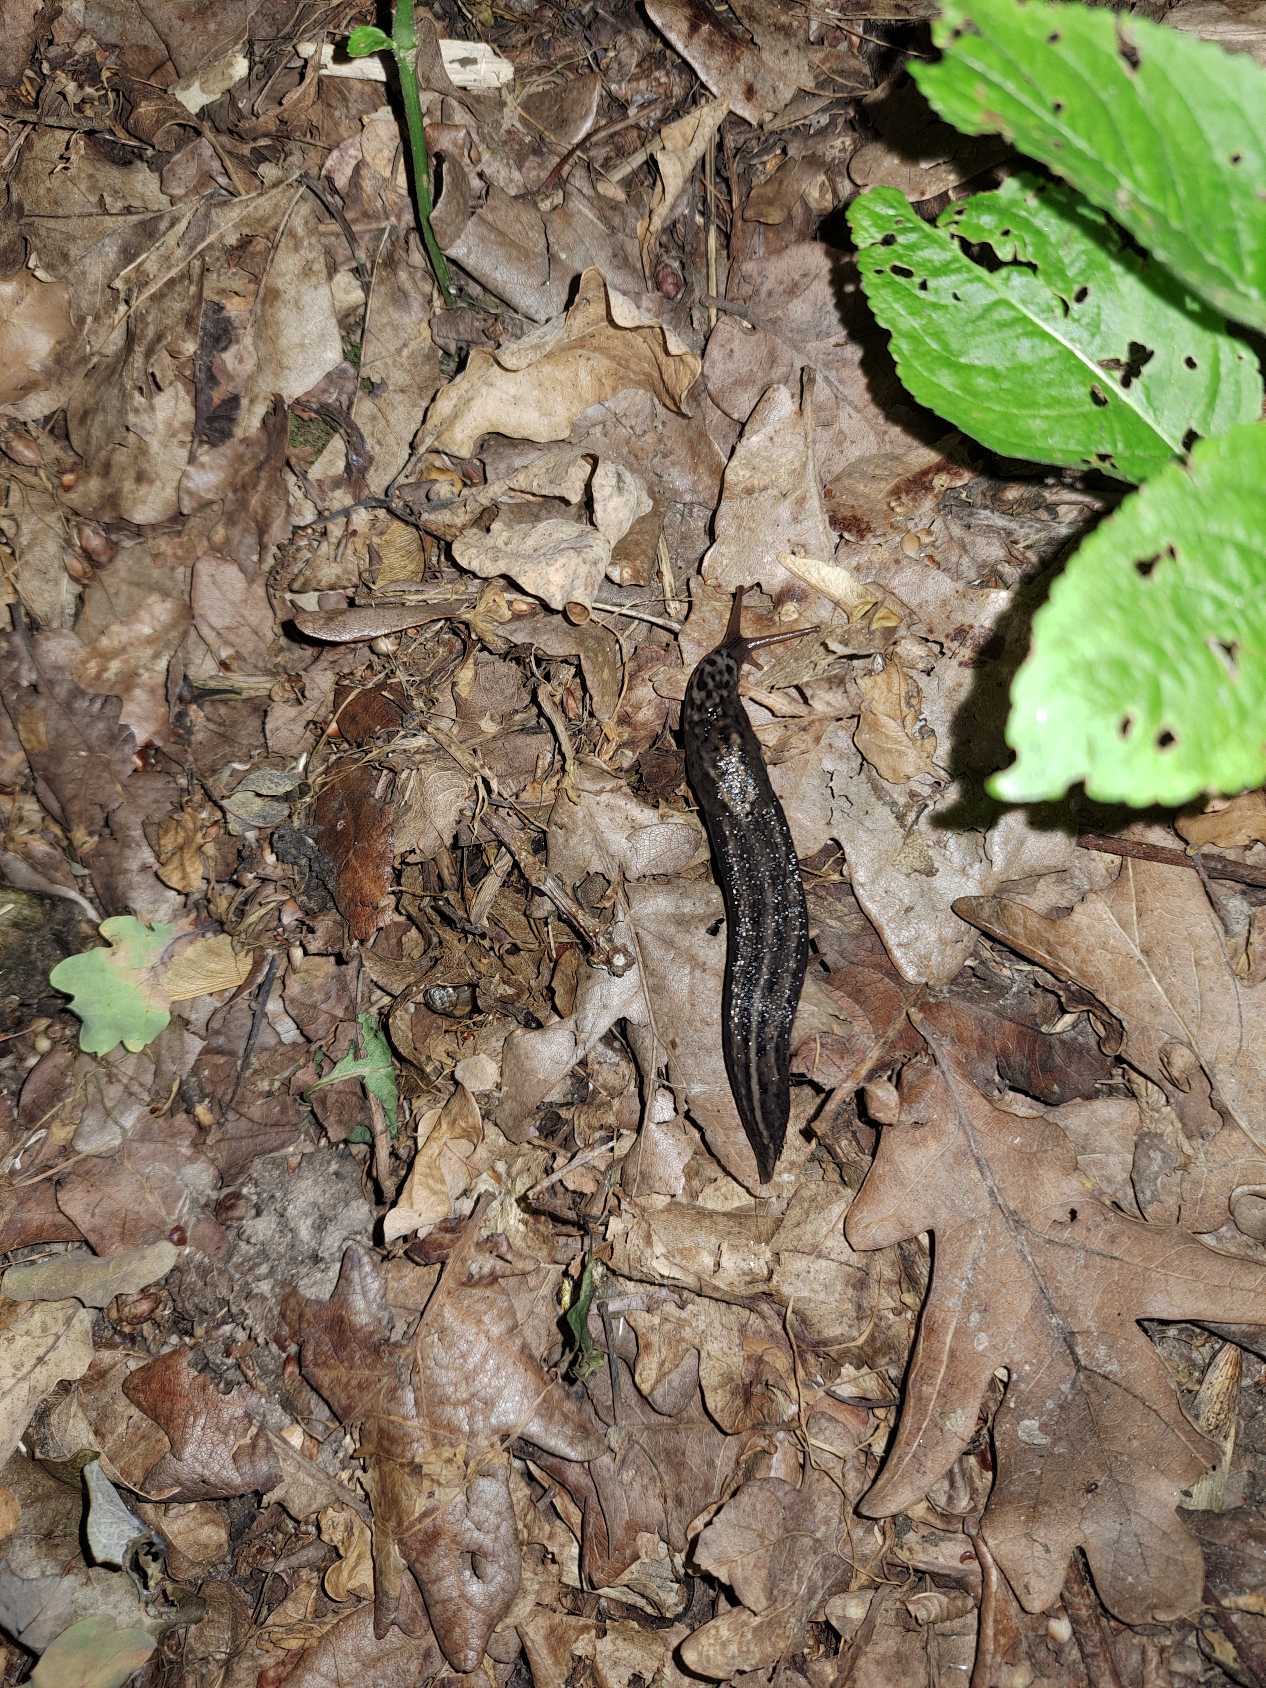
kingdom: Animalia
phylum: Mollusca
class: Gastropoda
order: Stylommatophora
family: Limacidae
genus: Limax
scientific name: Limax maximus
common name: Pantersnegl
